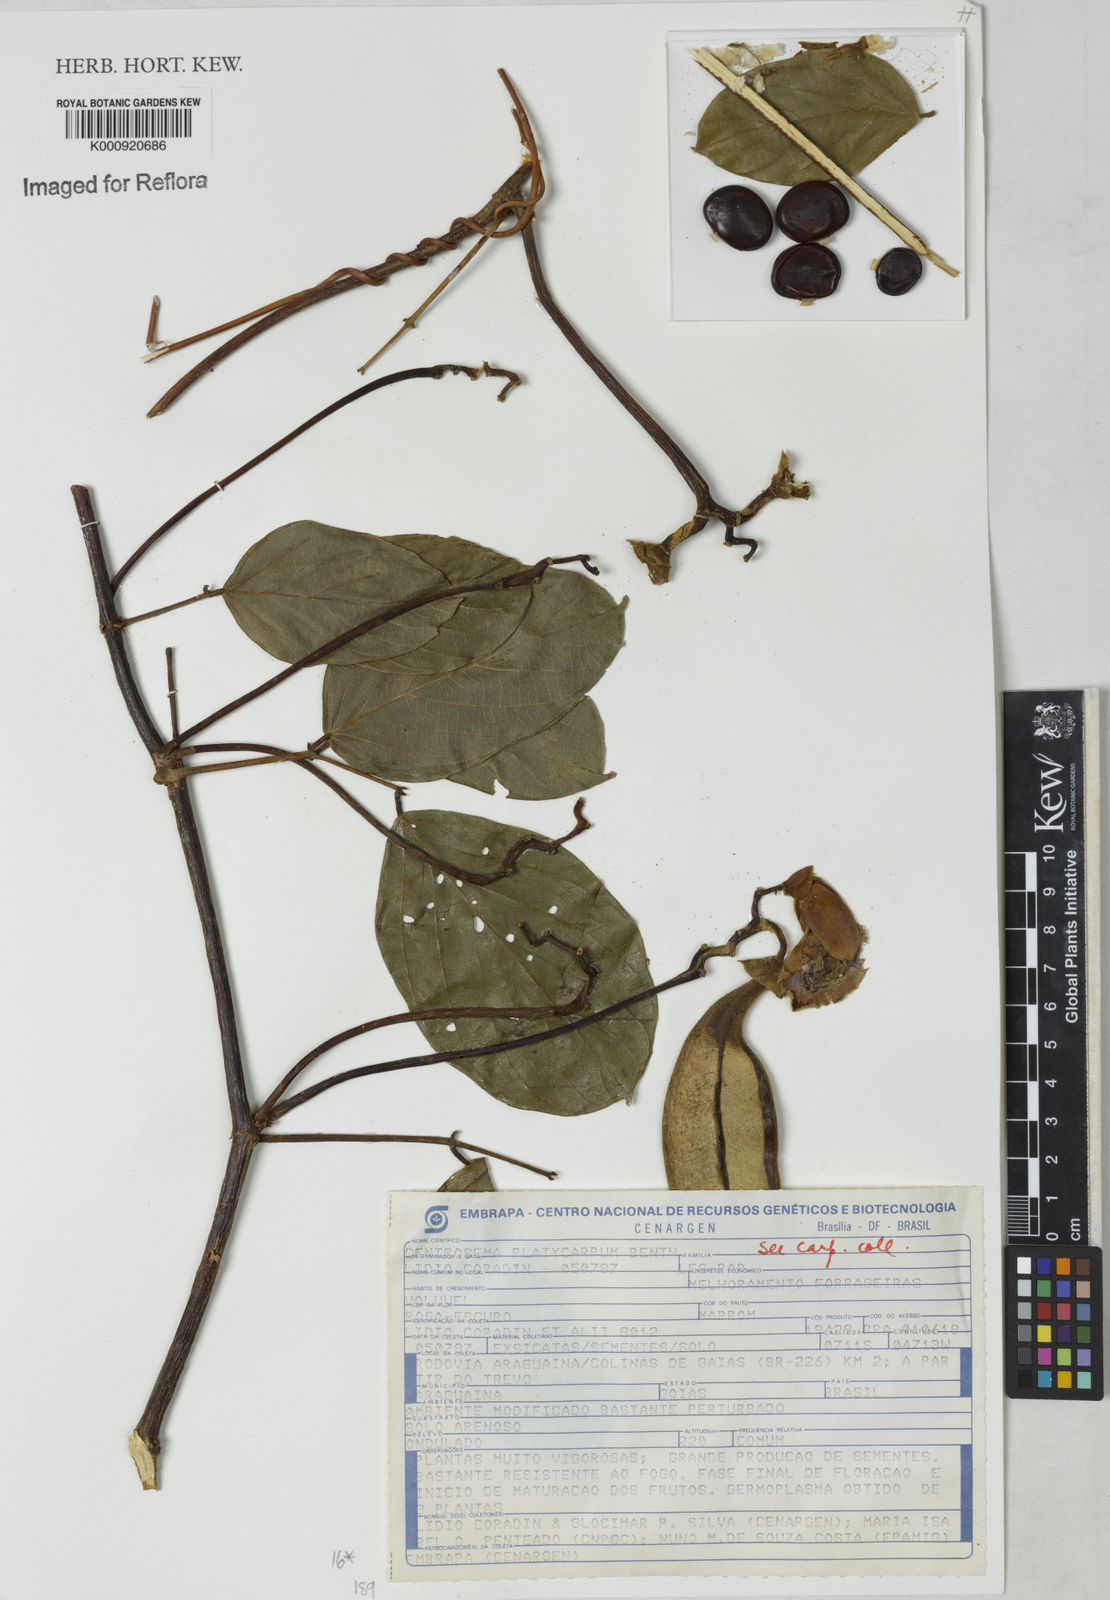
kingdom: Plantae
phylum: Tracheophyta
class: Magnoliopsida
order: Fabales
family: Fabaceae
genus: Centrosema
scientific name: Centrosema platycarpum
